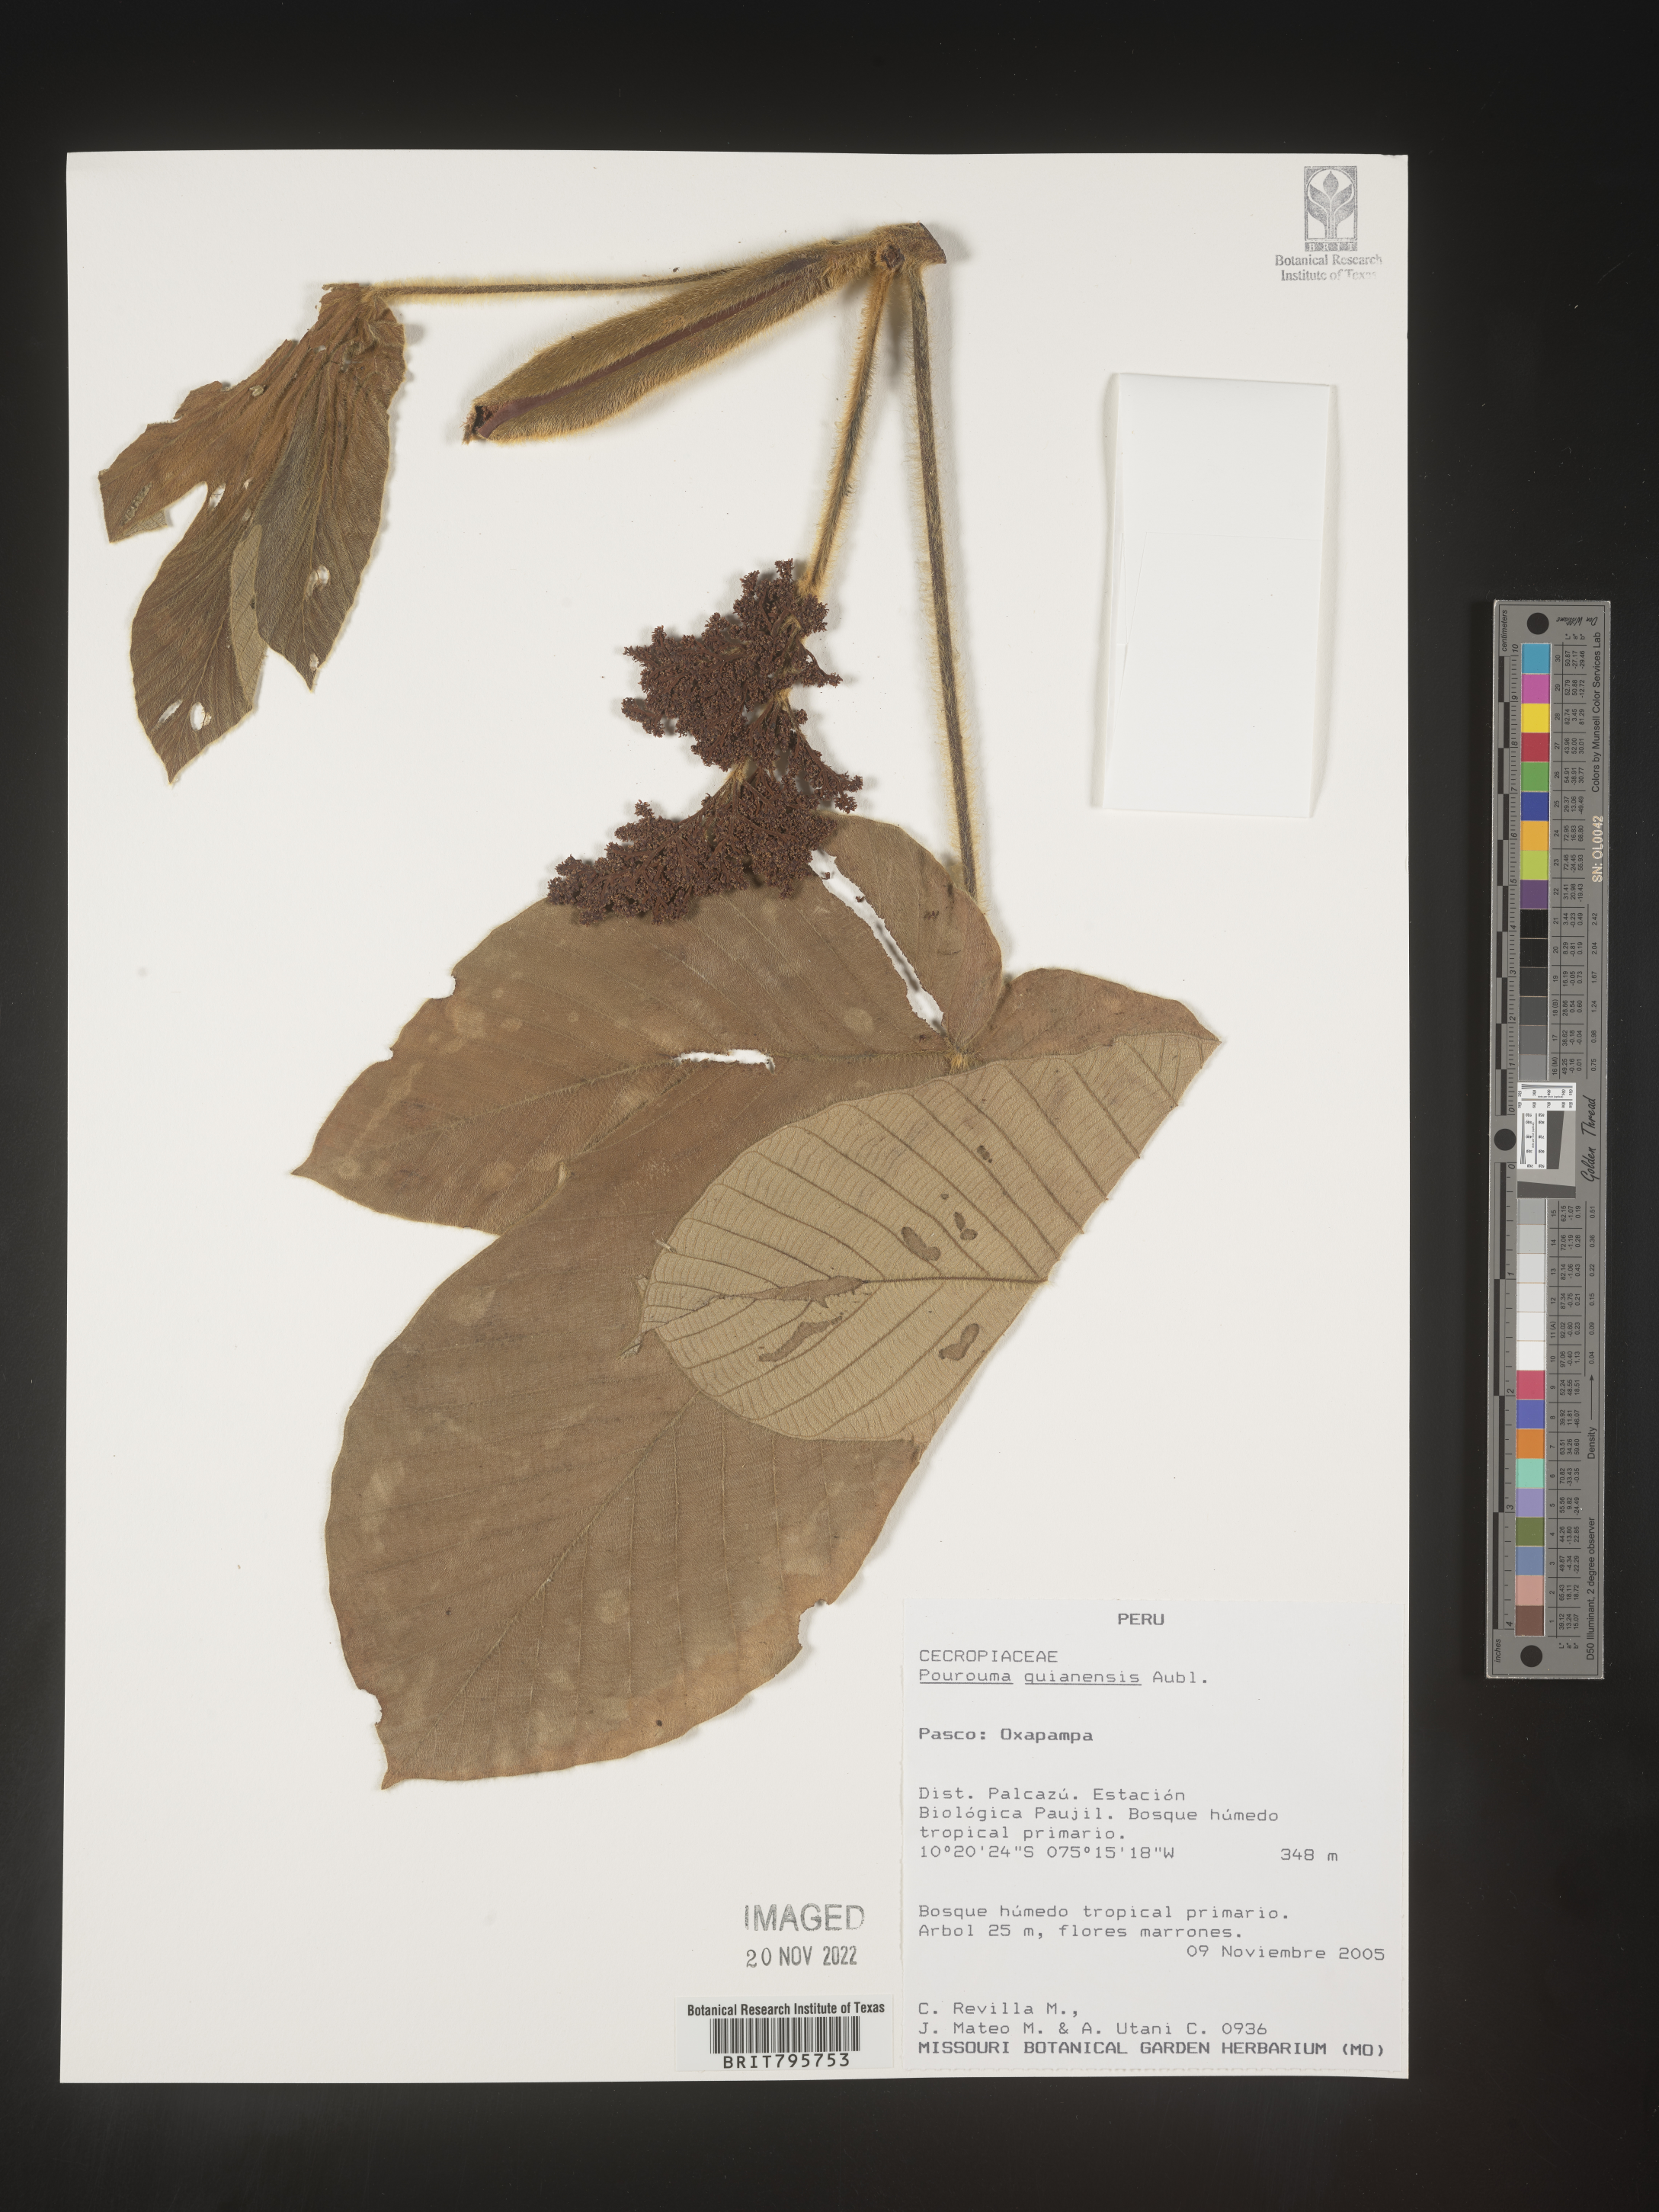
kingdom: Plantae
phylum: Tracheophyta
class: Magnoliopsida
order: Rosales
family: Urticaceae
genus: Pourouma
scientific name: Pourouma
